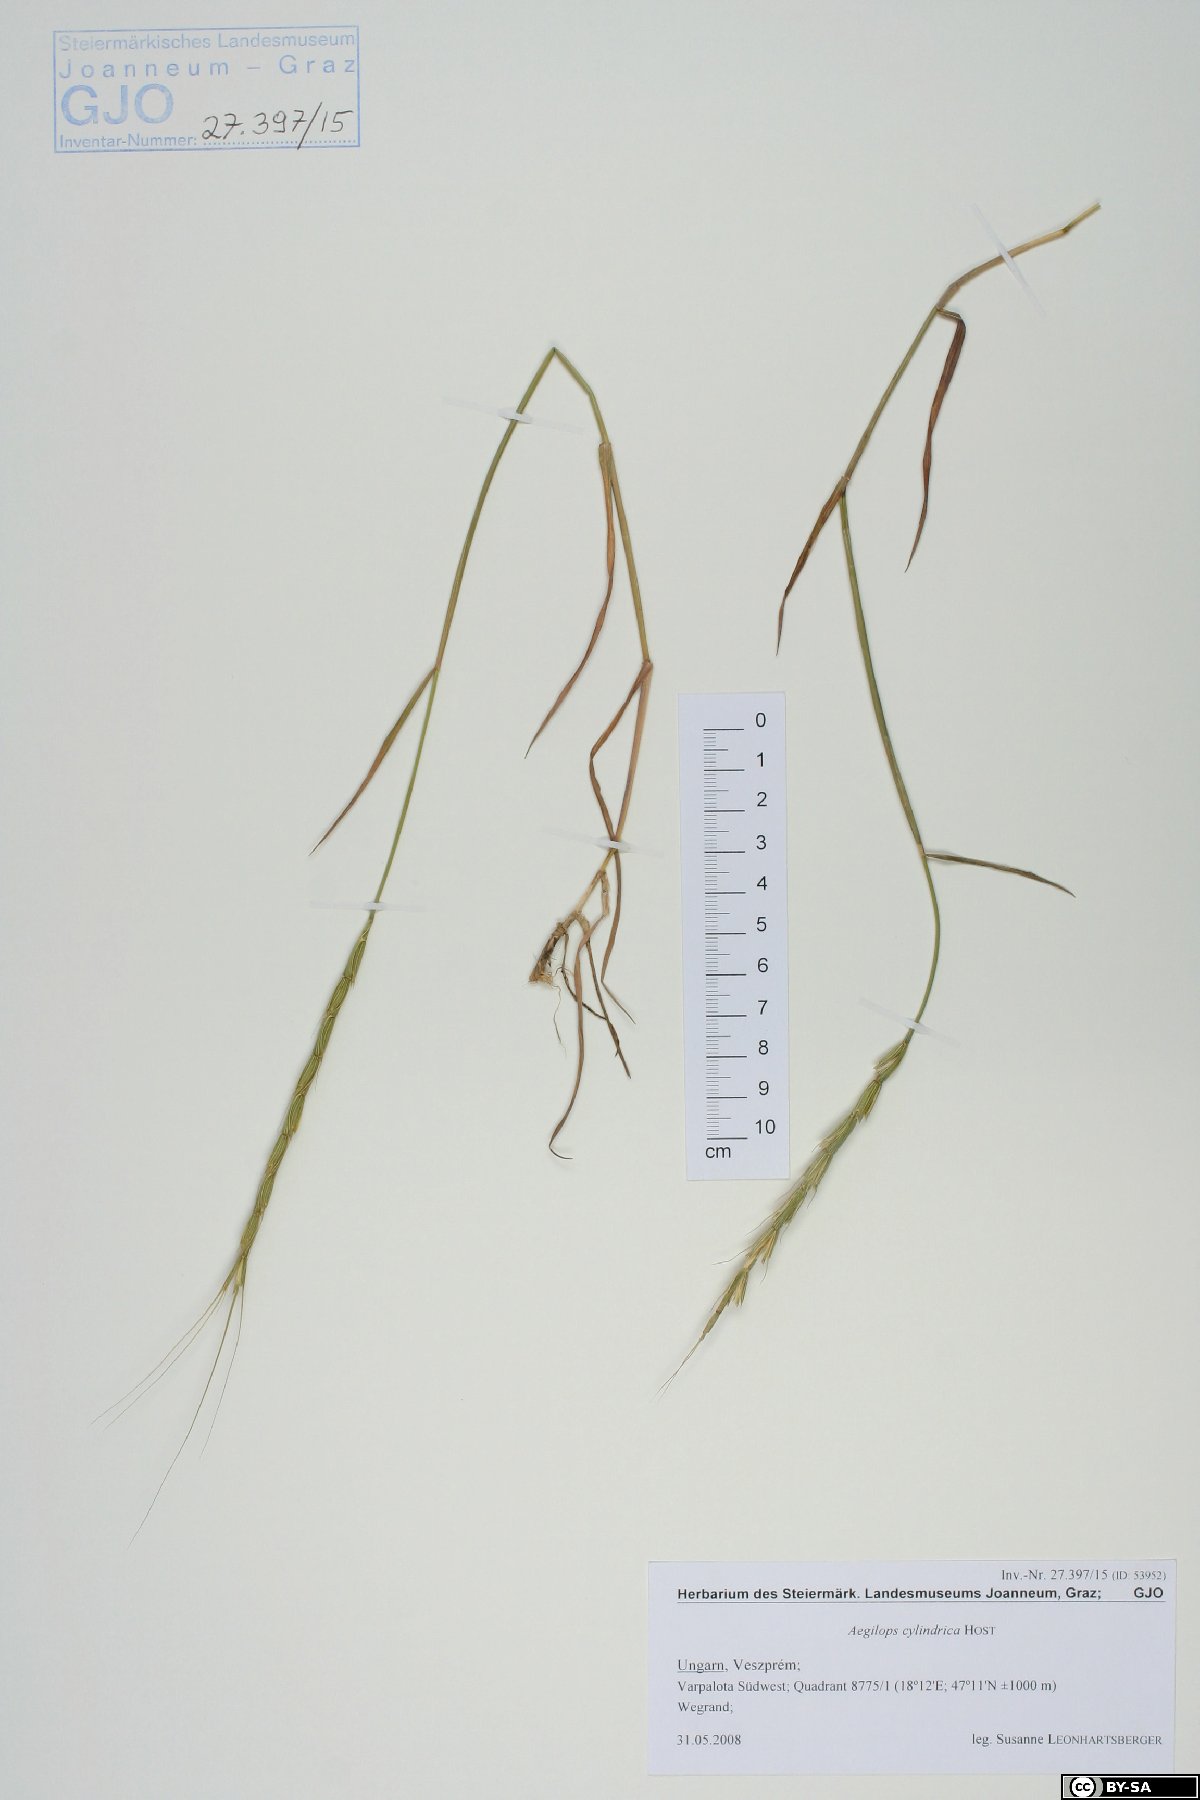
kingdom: Plantae
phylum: Tracheophyta
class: Liliopsida
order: Poales
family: Poaceae
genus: Aegilops
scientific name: Aegilops cylindrica
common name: Jointed goatgrass
